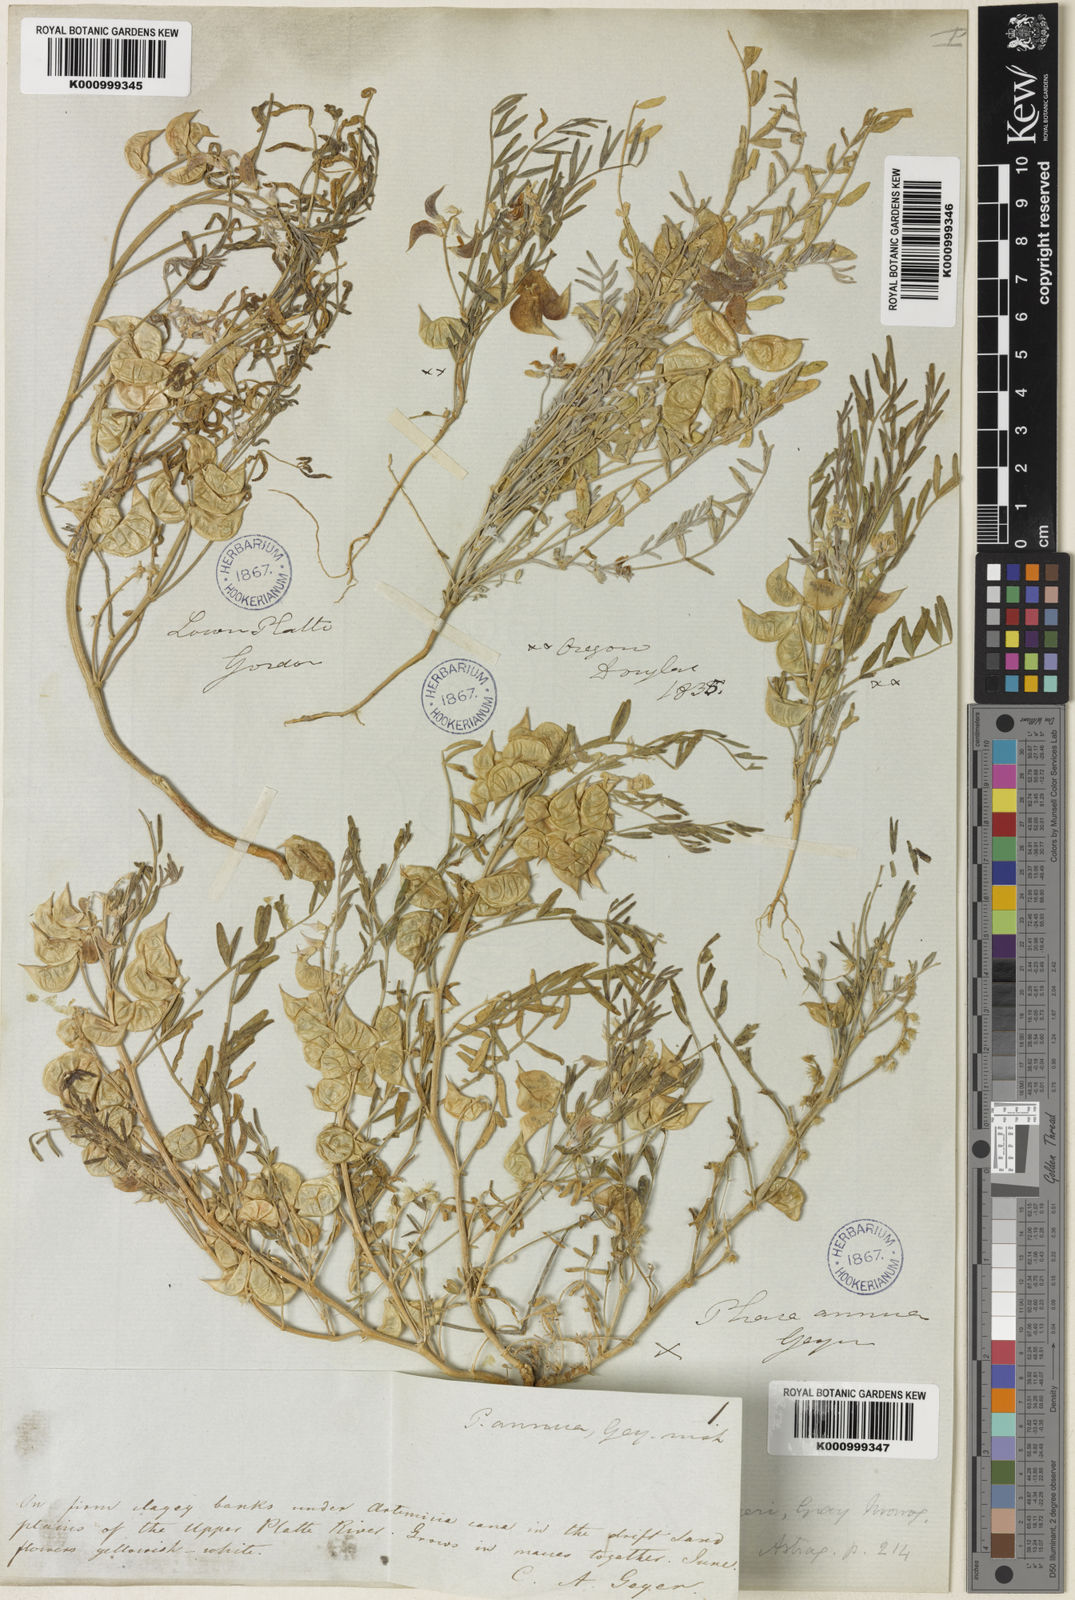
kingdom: Plantae
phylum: Tracheophyta
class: Magnoliopsida
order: Fabales
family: Fabaceae
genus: Astragalus
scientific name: Astragalus geyeri
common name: Geyer's milkvetch
